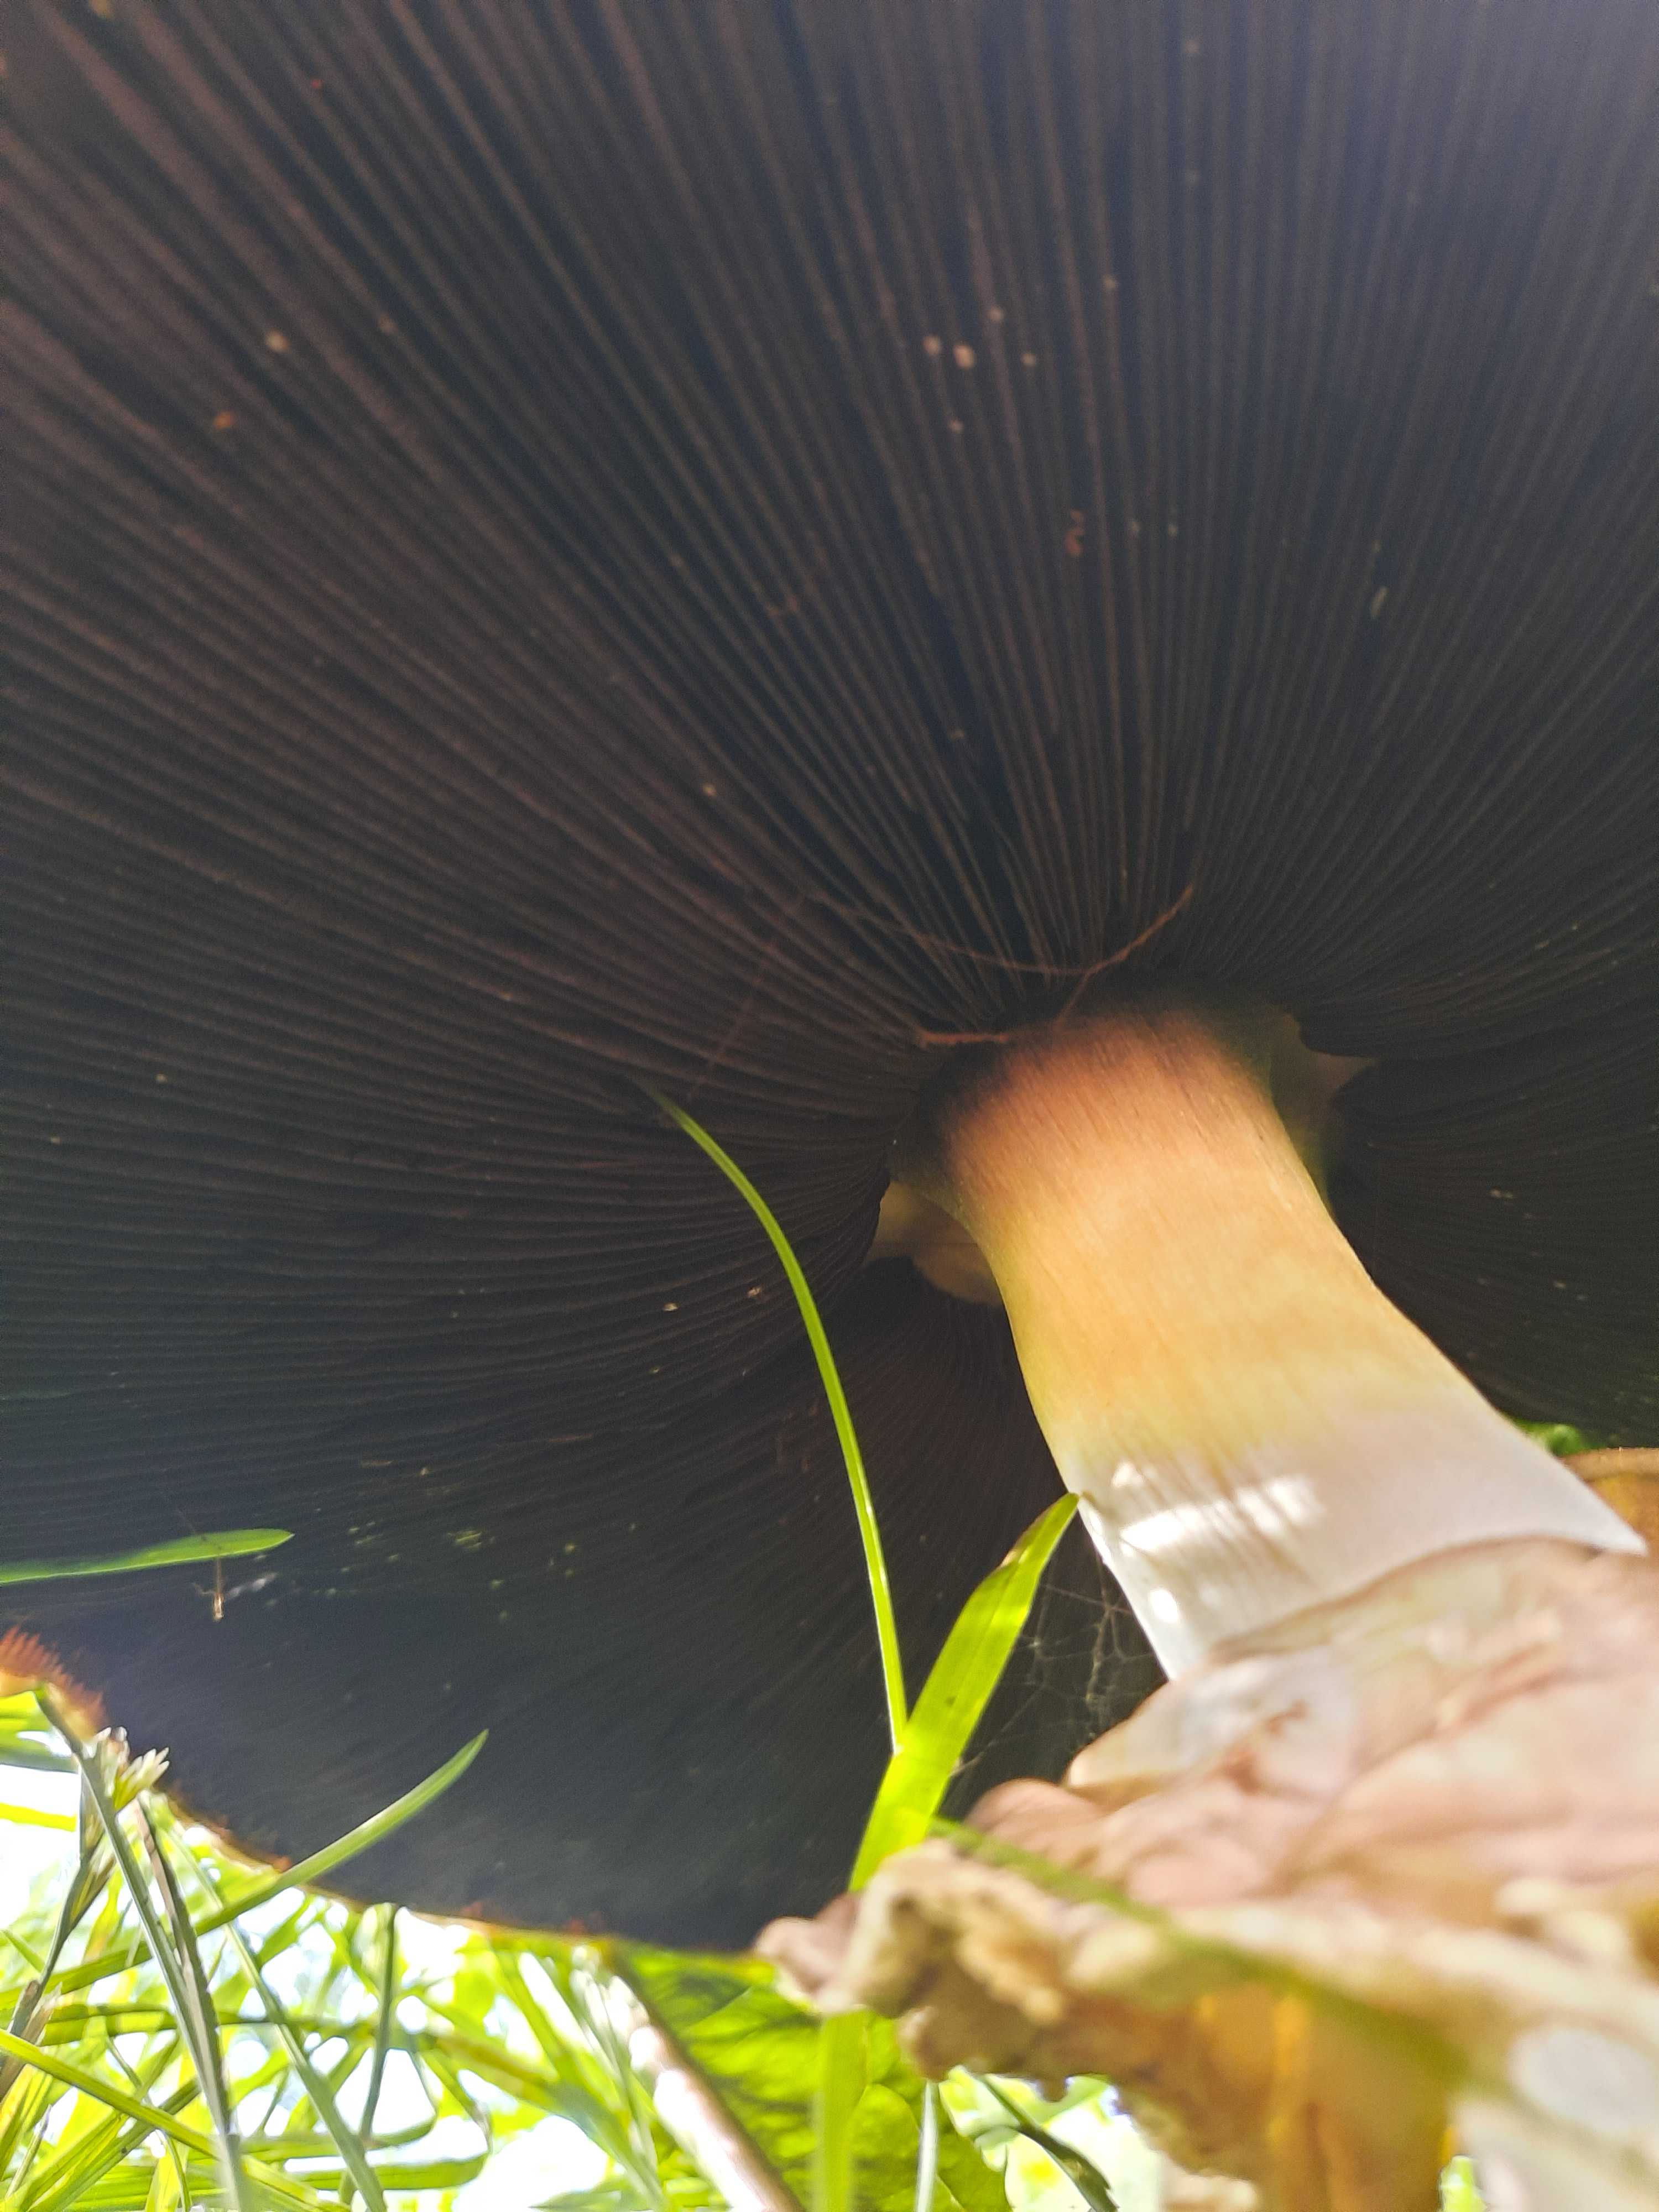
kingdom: Fungi
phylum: Basidiomycota
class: Agaricomycetes
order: Agaricales
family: Agaricaceae
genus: Agaricus
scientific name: Agaricus
